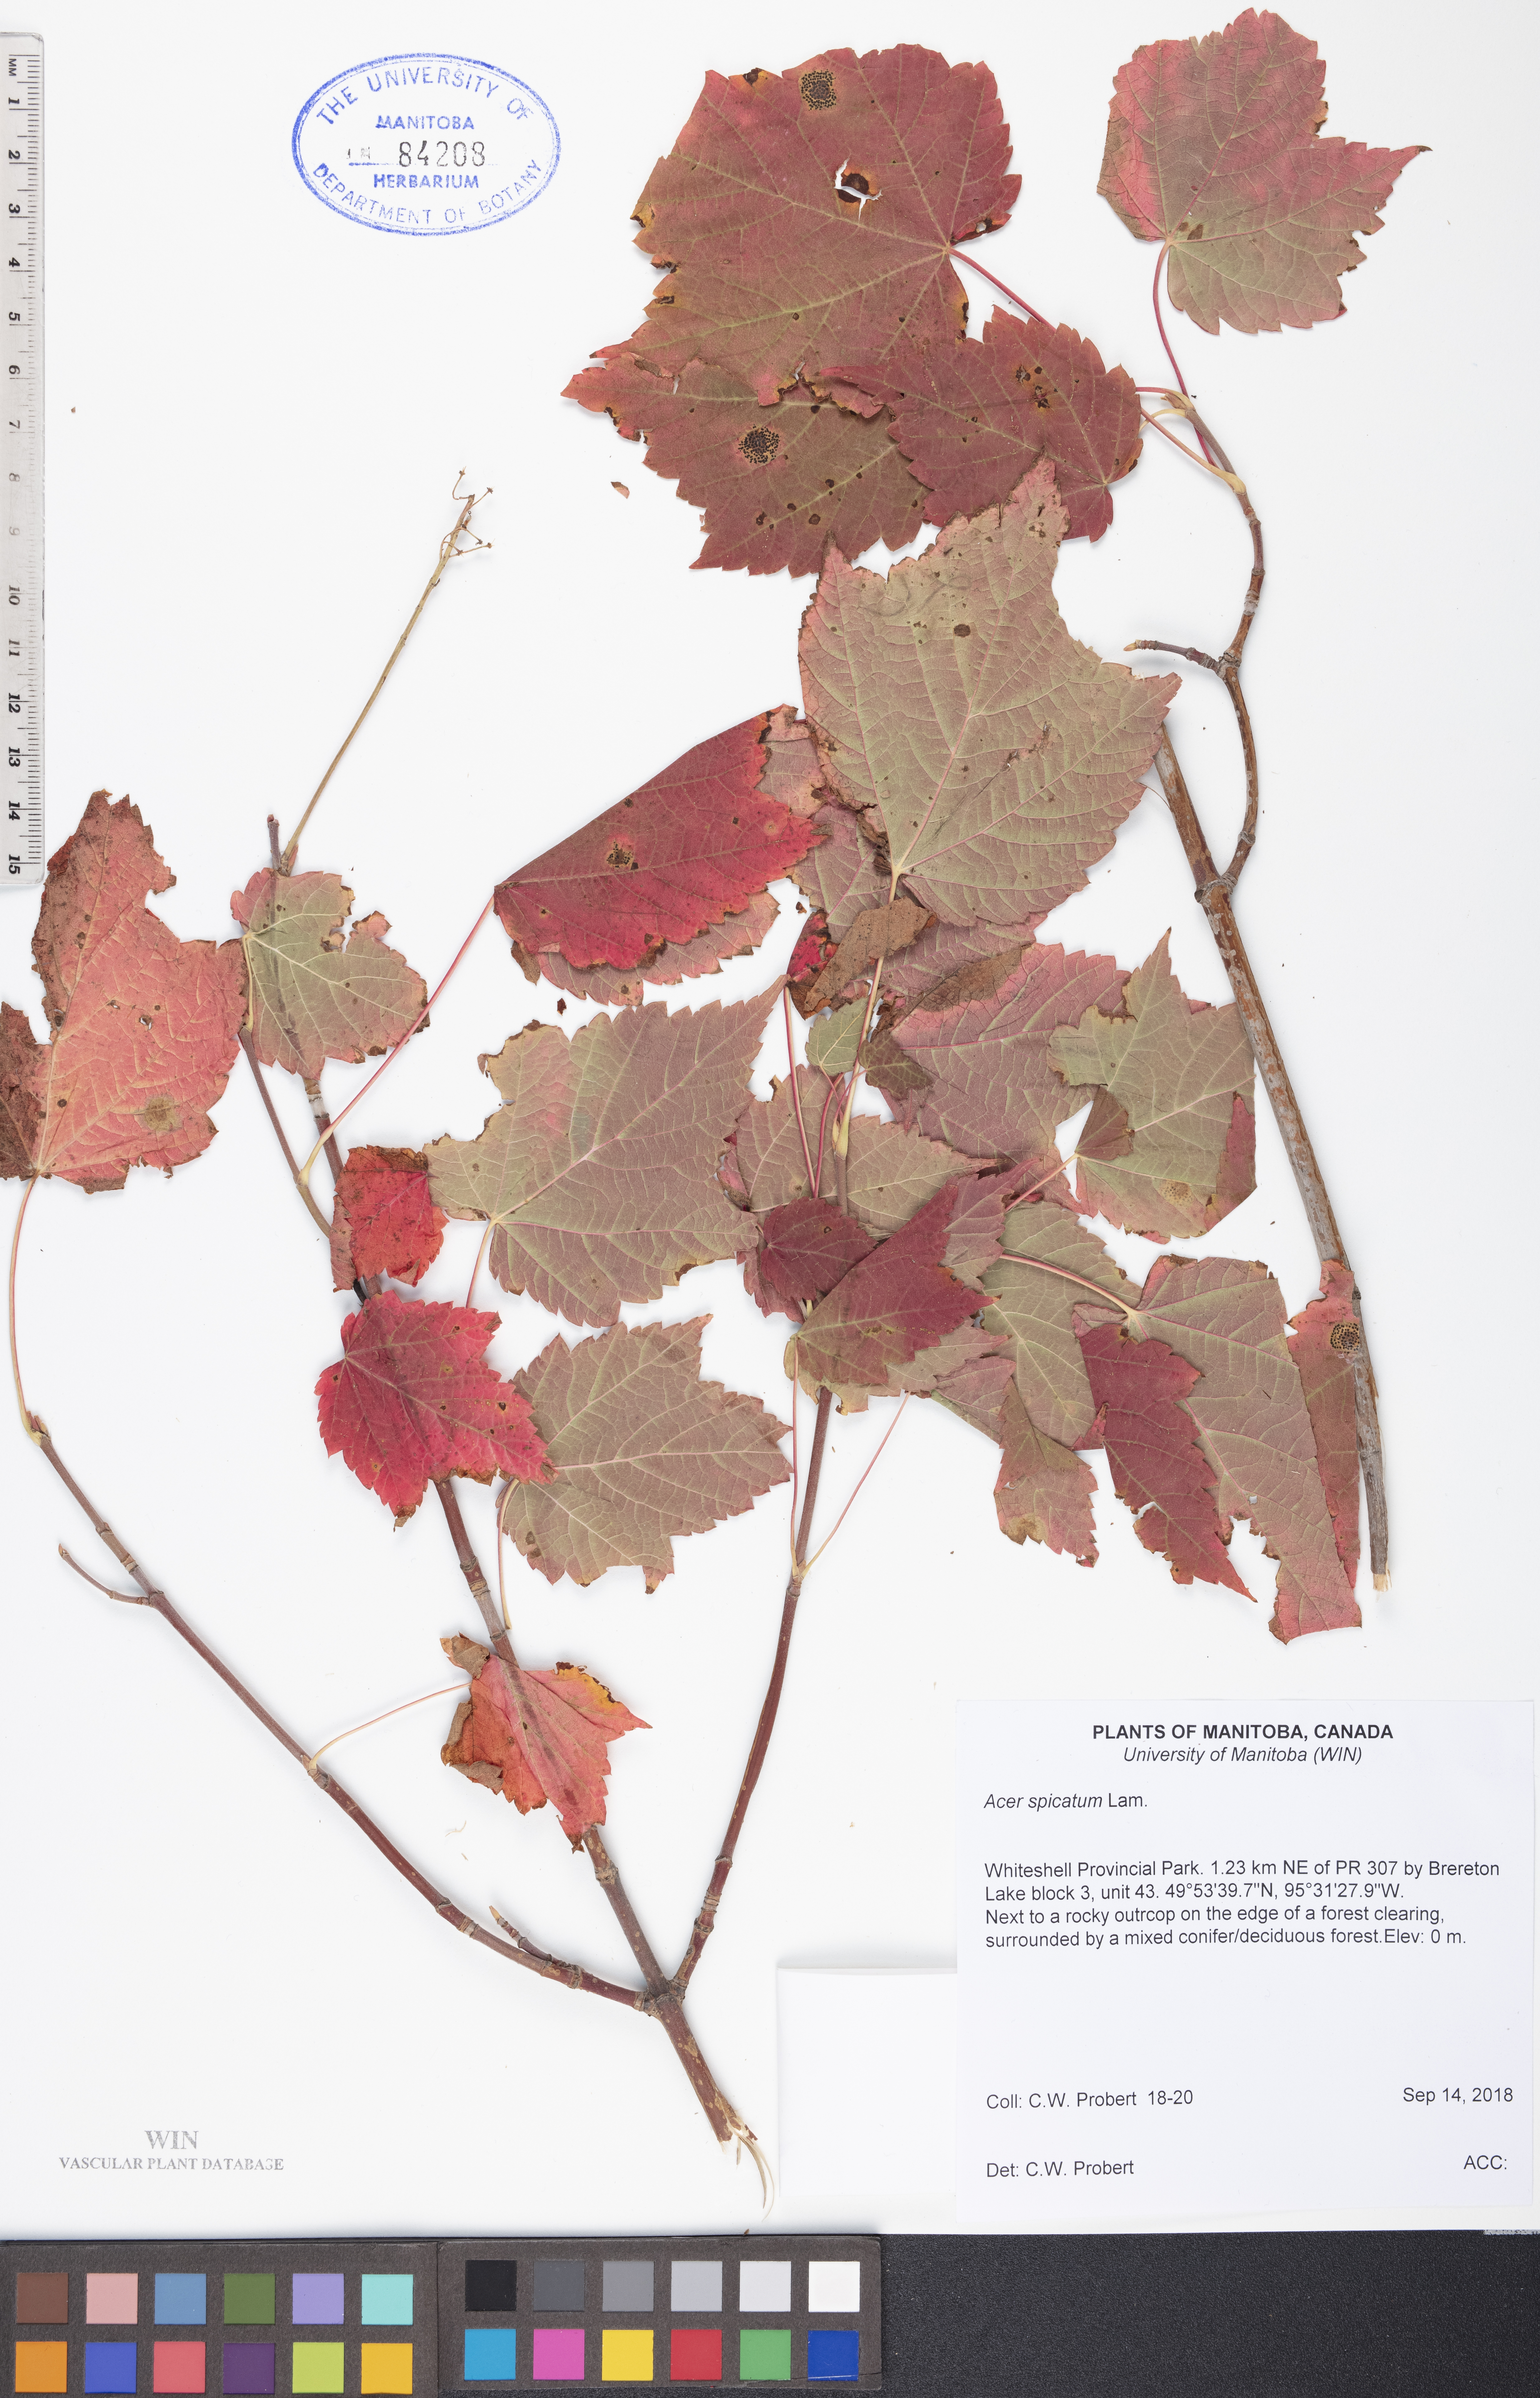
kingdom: Plantae
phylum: Tracheophyta
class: Magnoliopsida
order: Sapindales
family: Sapindaceae
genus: Acer
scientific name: Acer spicatum
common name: Mountain maple
